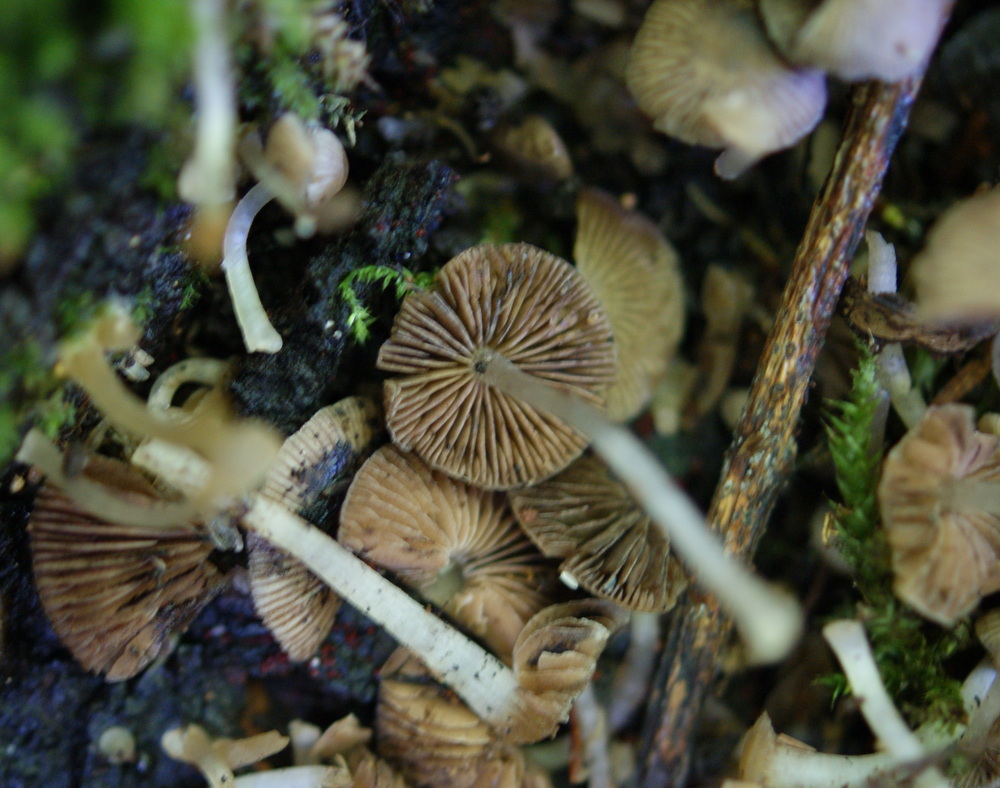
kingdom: Fungi
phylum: Basidiomycota
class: Agaricomycetes
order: Agaricales
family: Psathyrellaceae
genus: Psathyrella
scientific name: Psathyrella pygmaea
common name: dværg-mørkhat
